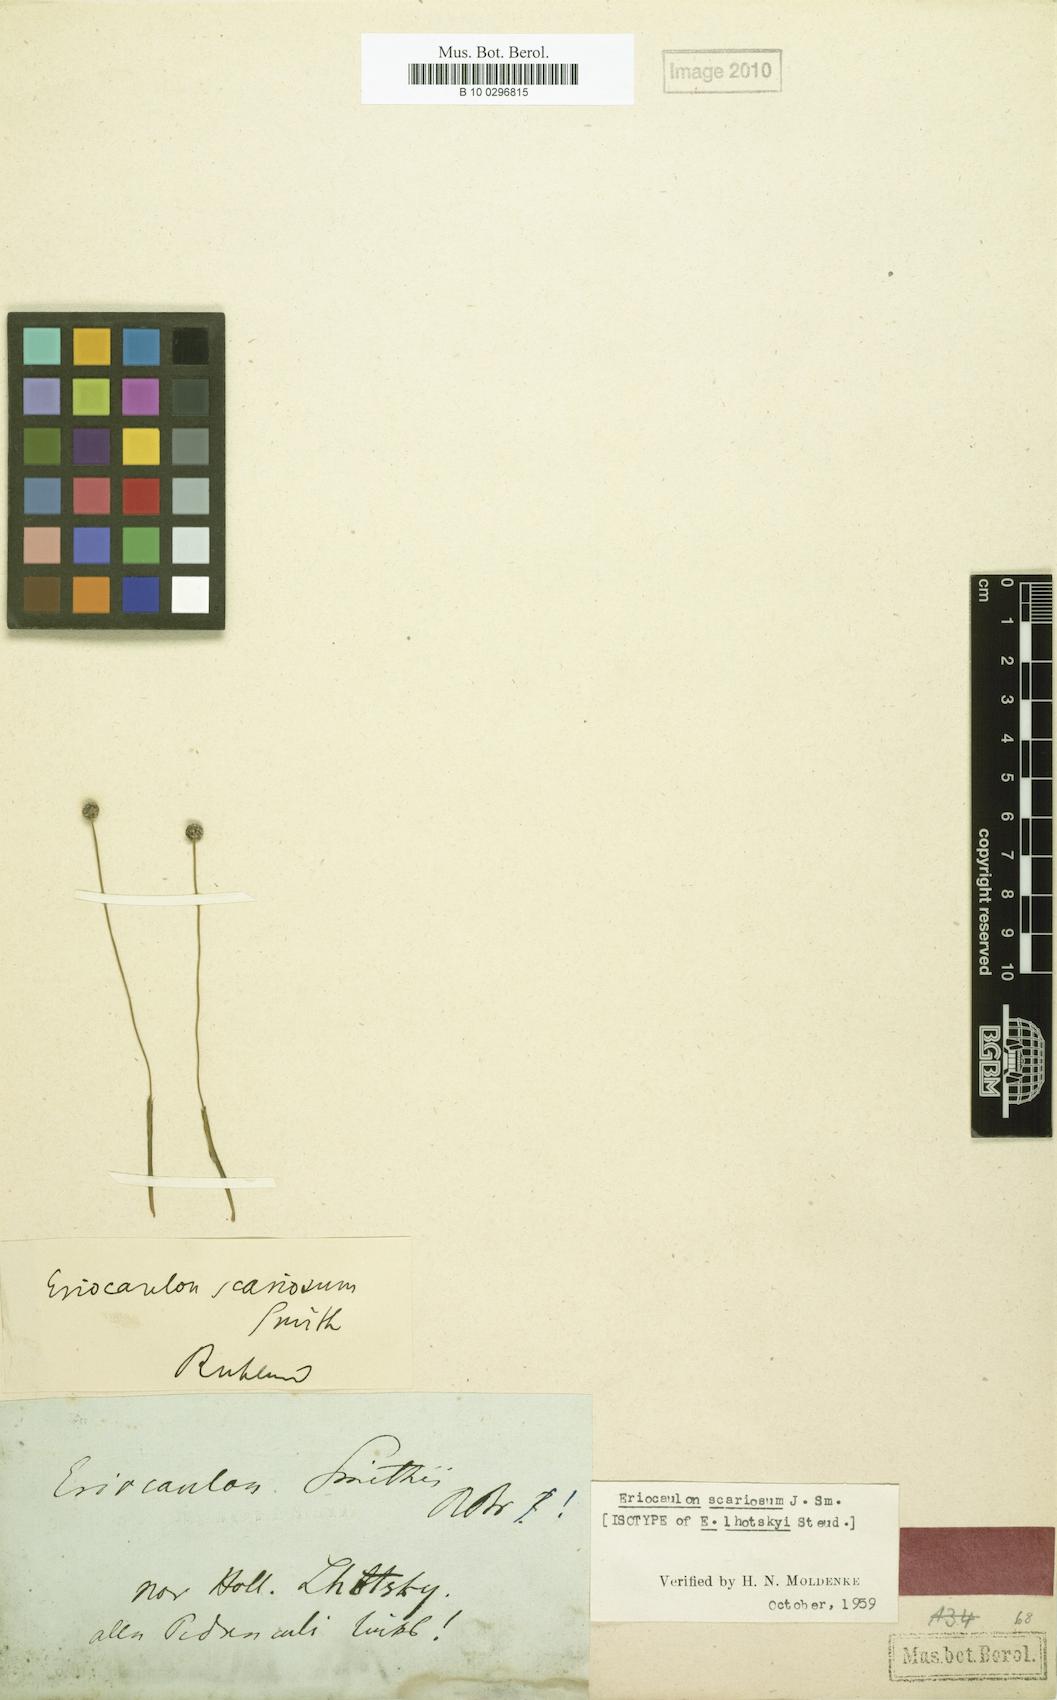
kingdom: Plantae
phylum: Tracheophyta
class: Liliopsida
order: Poales
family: Eriocaulaceae
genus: Eriocaulon
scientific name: Eriocaulon scariosum
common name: Rough pipewort
